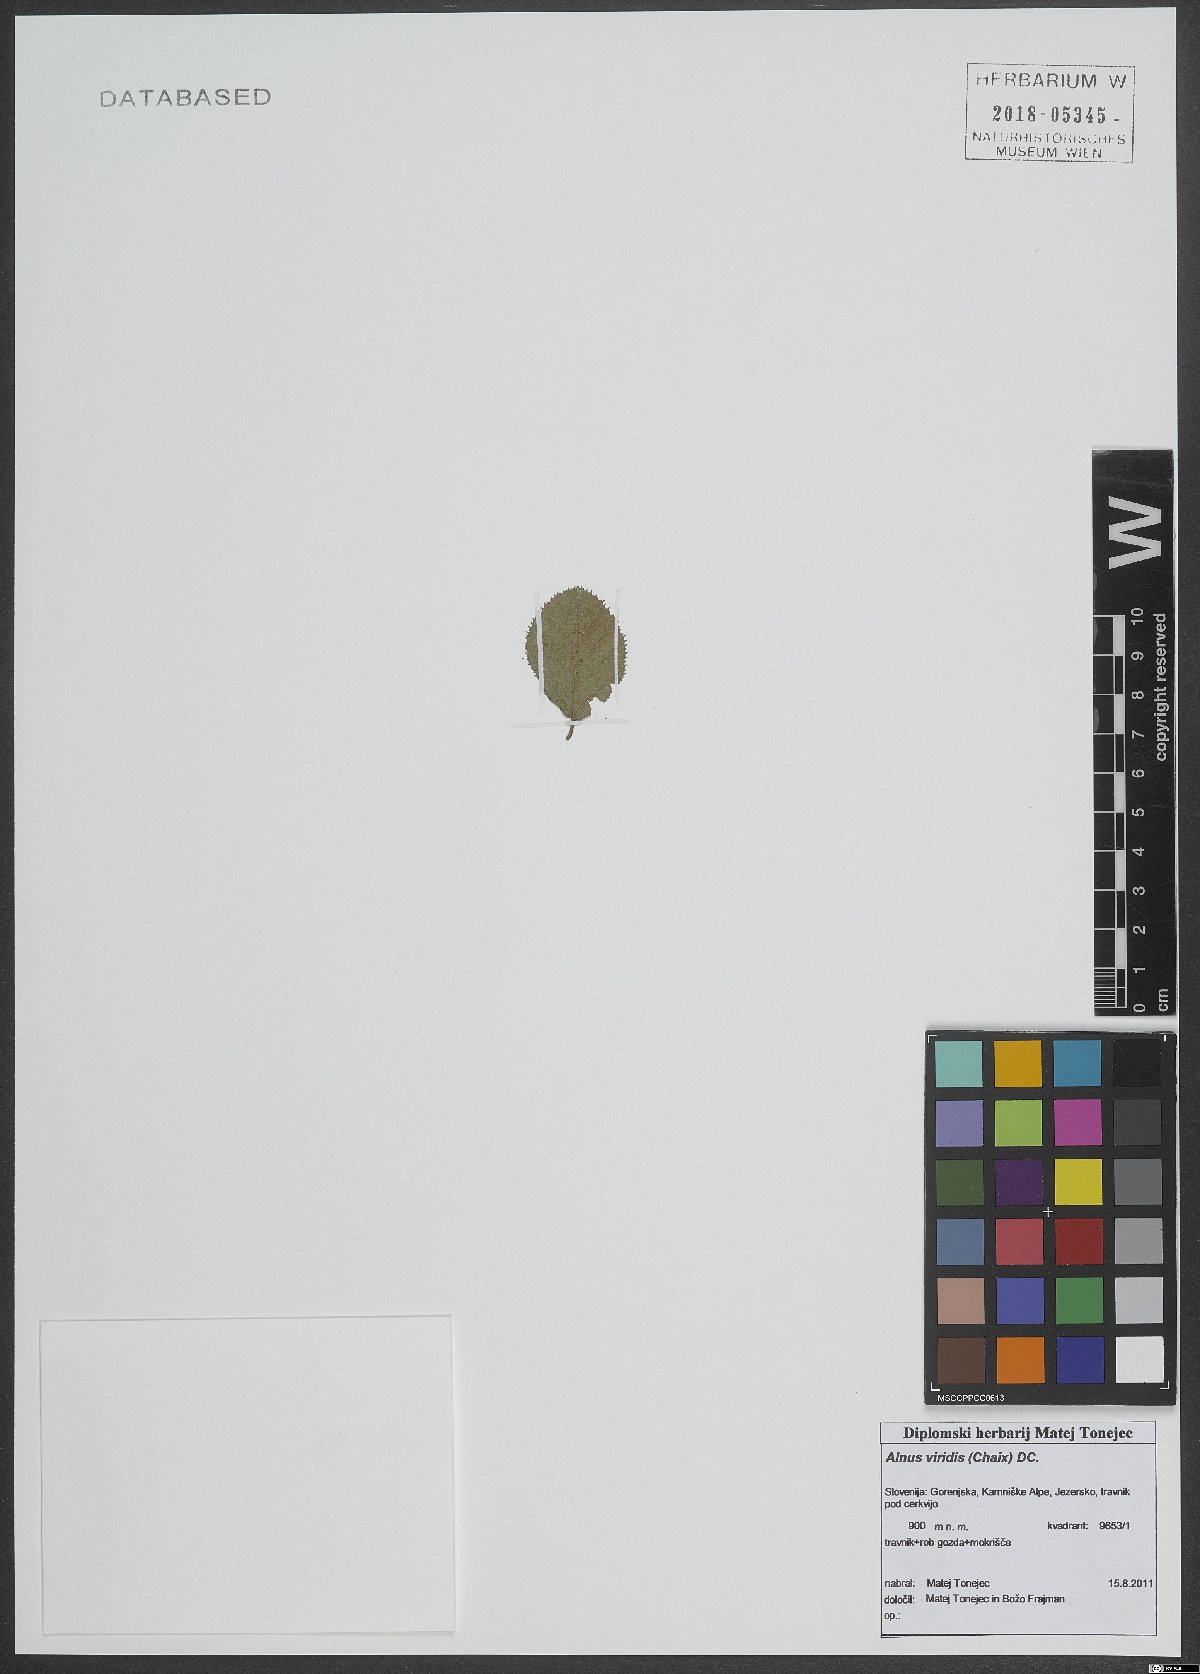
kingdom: Plantae
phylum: Tracheophyta
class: Magnoliopsida
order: Asterales
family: Asteraceae
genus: Ananthura
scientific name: Ananthura pteropoda
